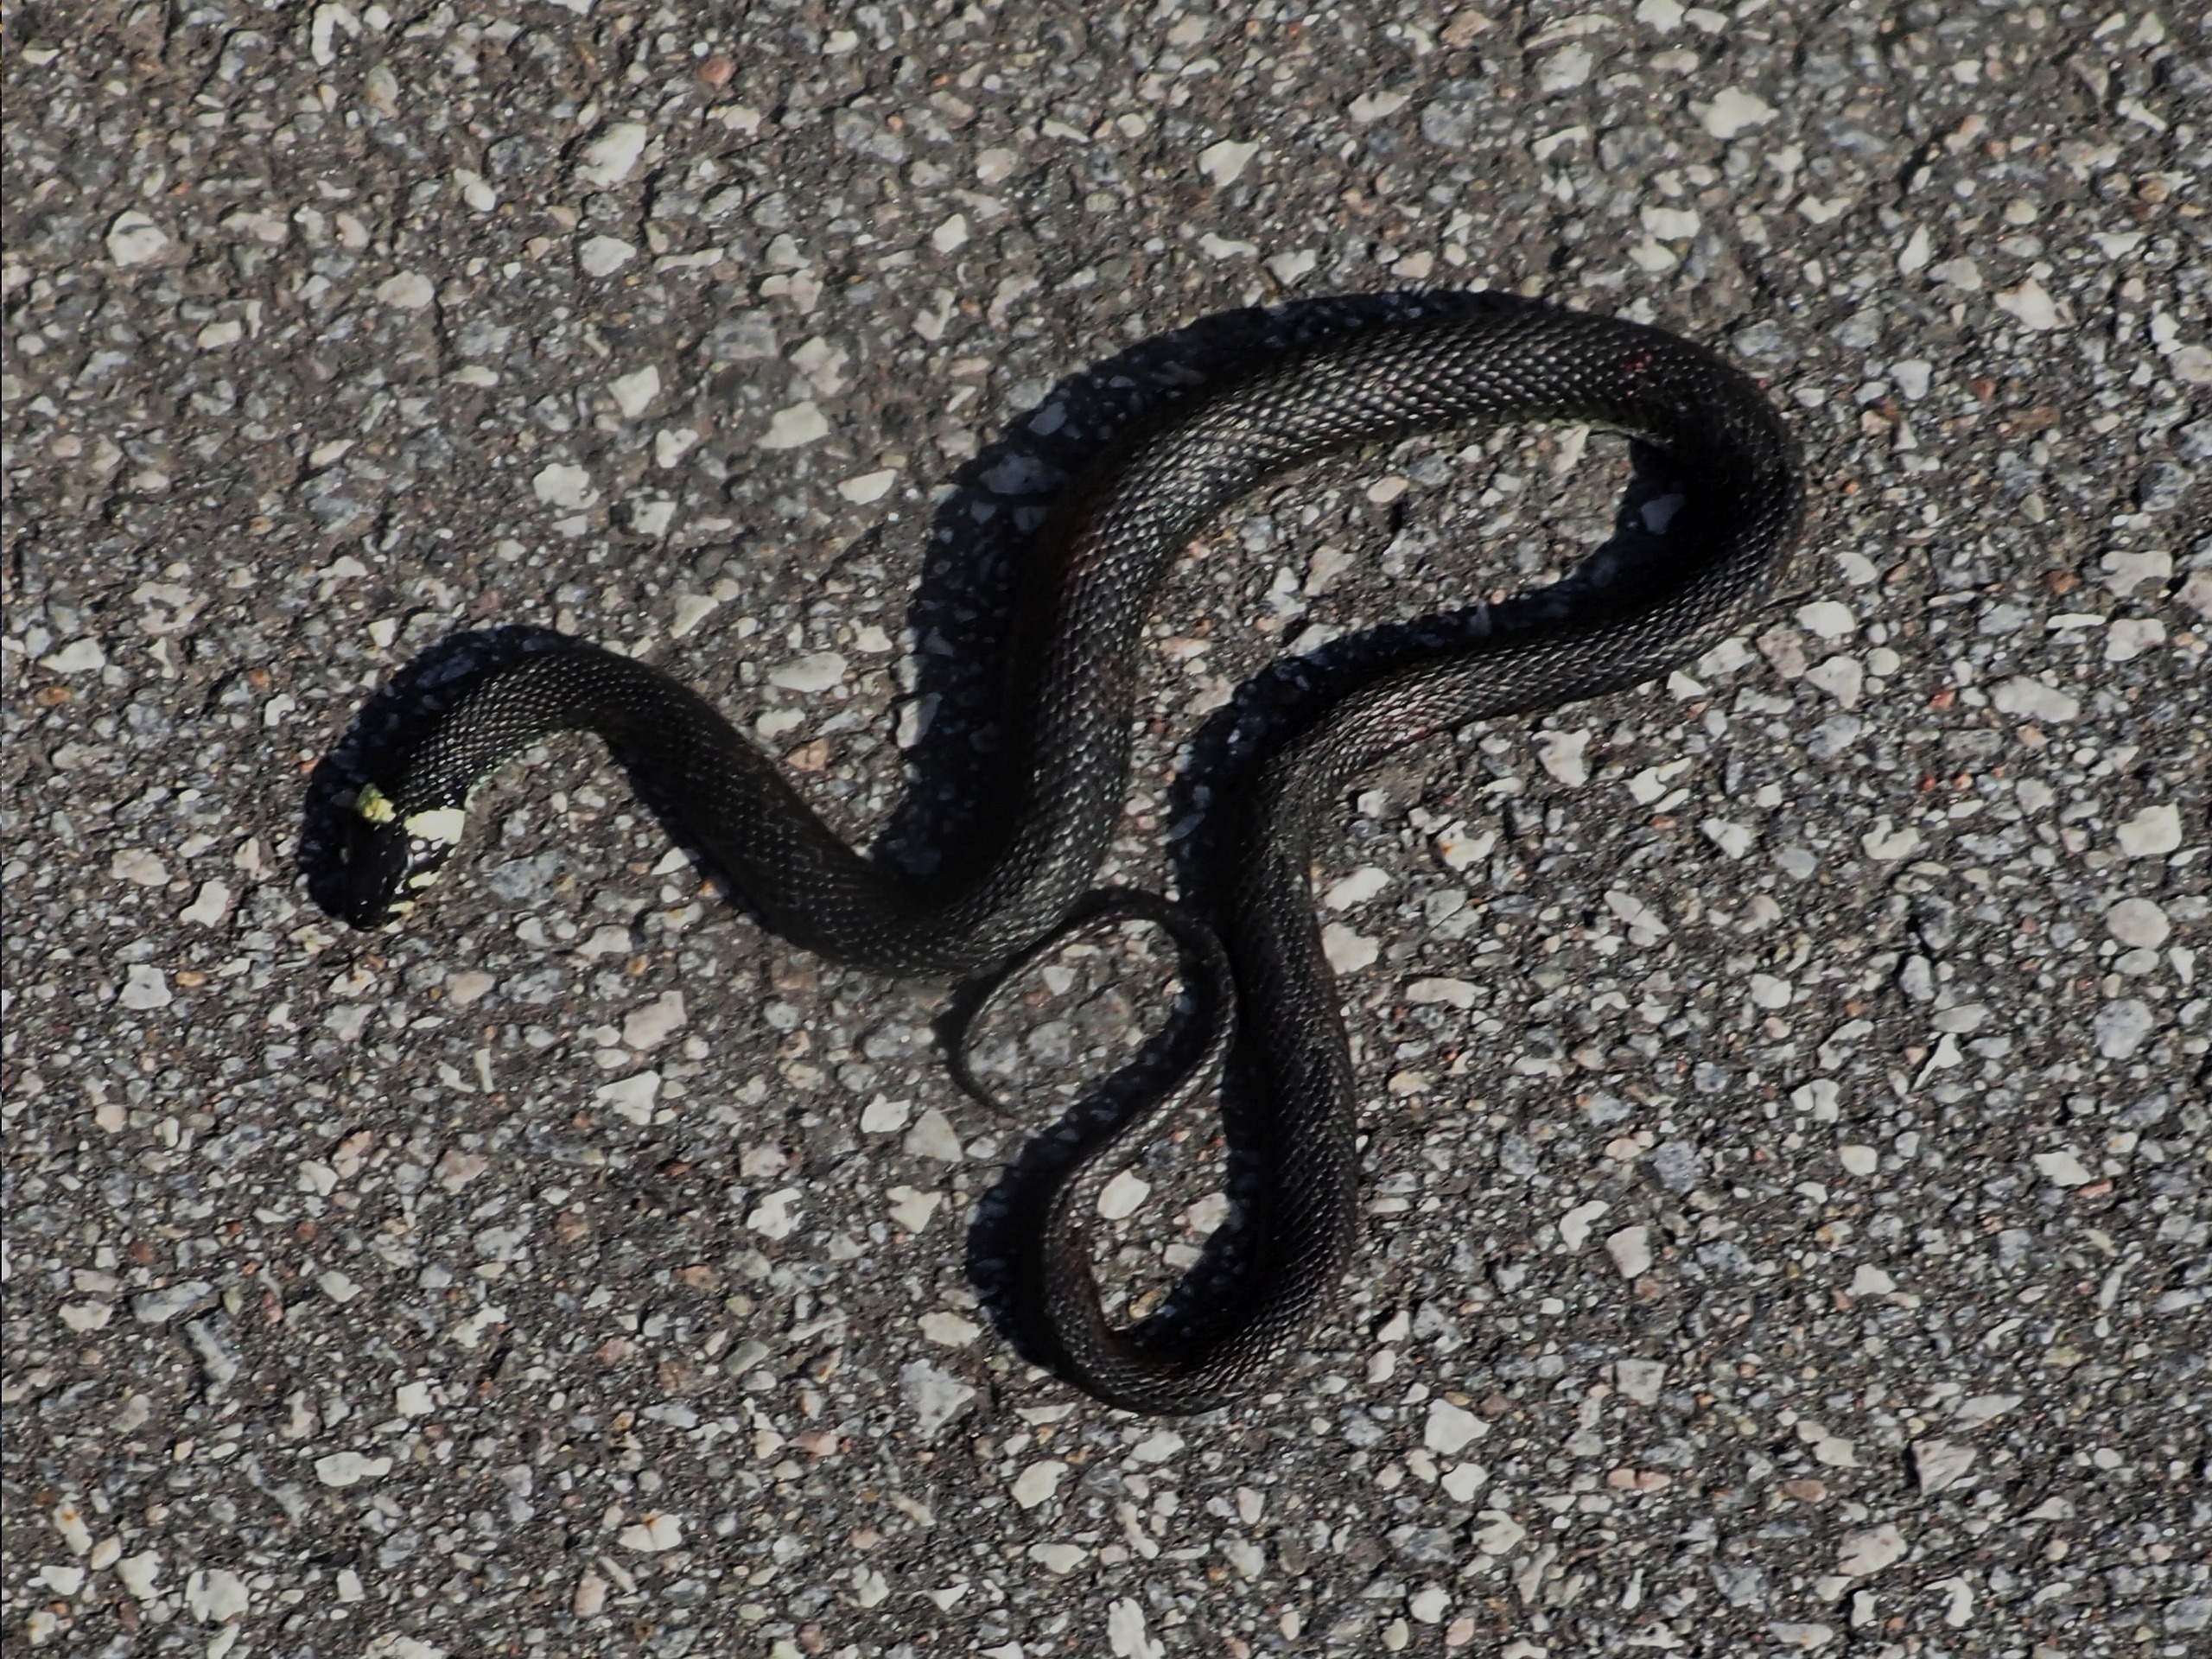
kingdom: Animalia
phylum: Chordata
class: Squamata
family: Colubridae
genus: Natrix
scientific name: Natrix natrix
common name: Snog
